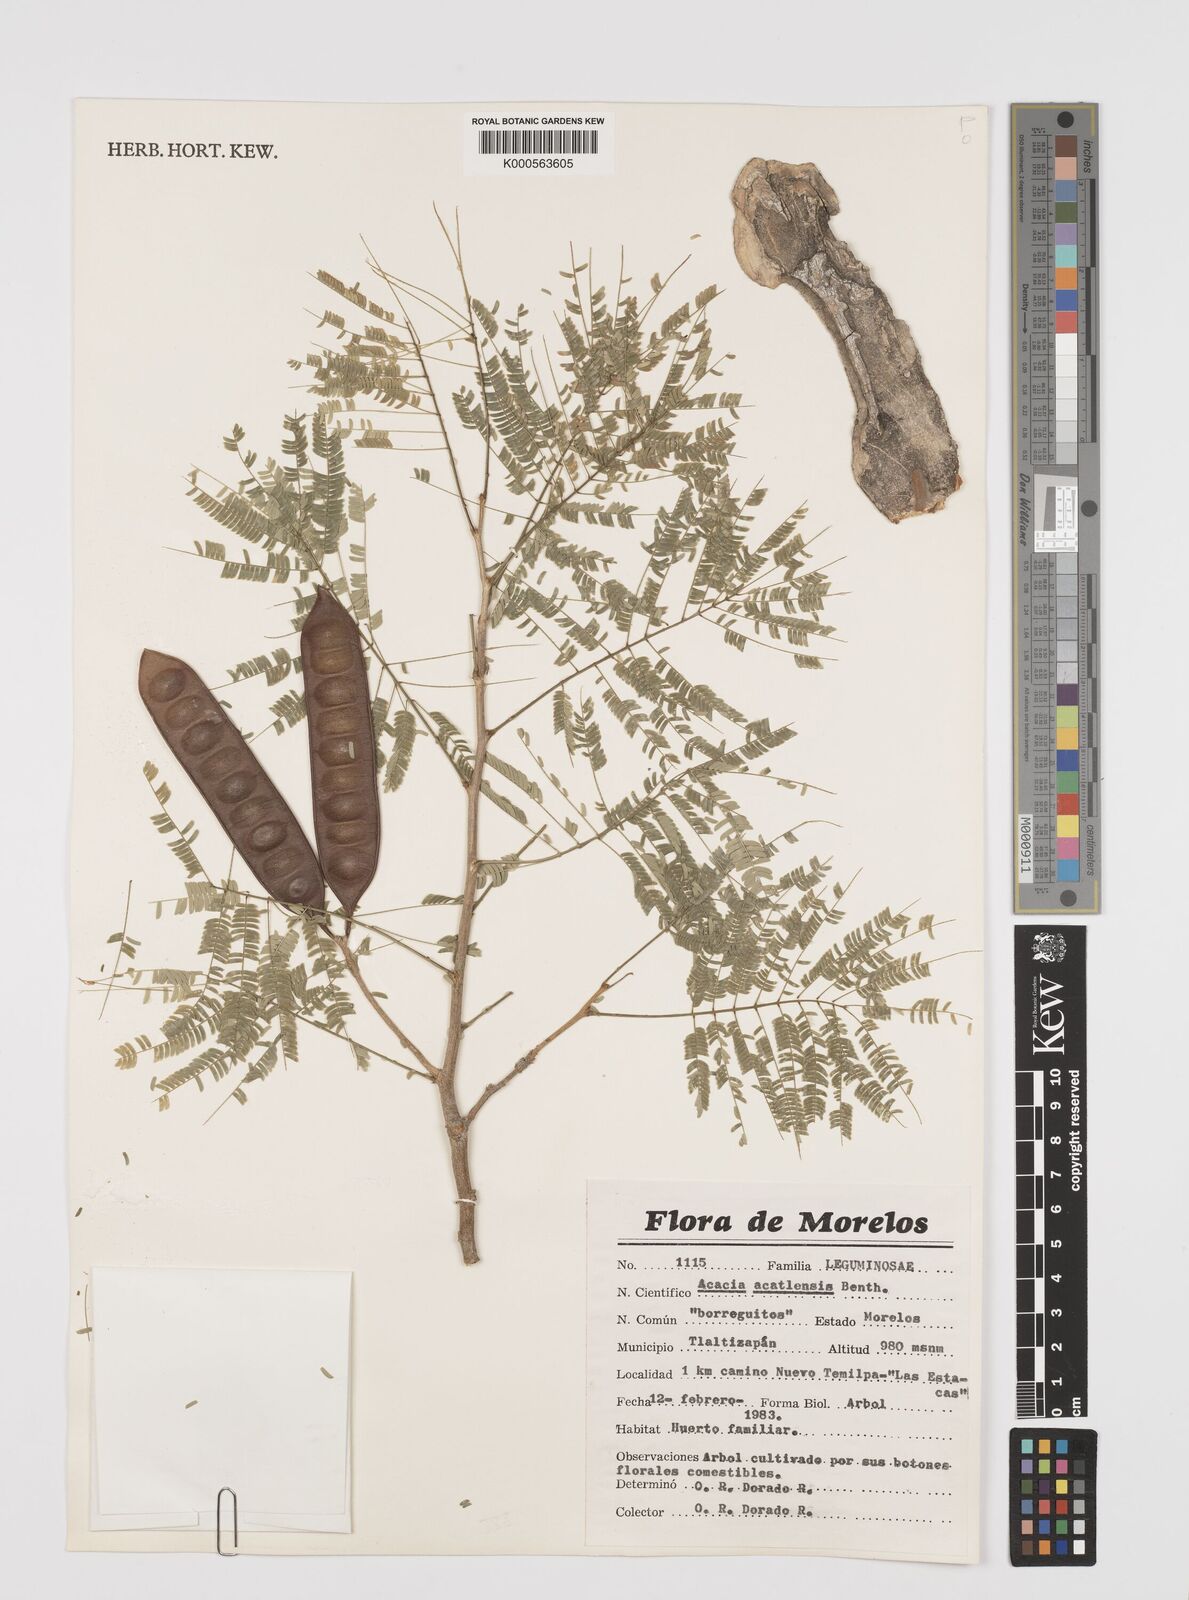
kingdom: Plantae
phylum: Tracheophyta
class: Magnoliopsida
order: Fabales
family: Fabaceae
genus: Mariosousa
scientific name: Mariosousa acatlensis
